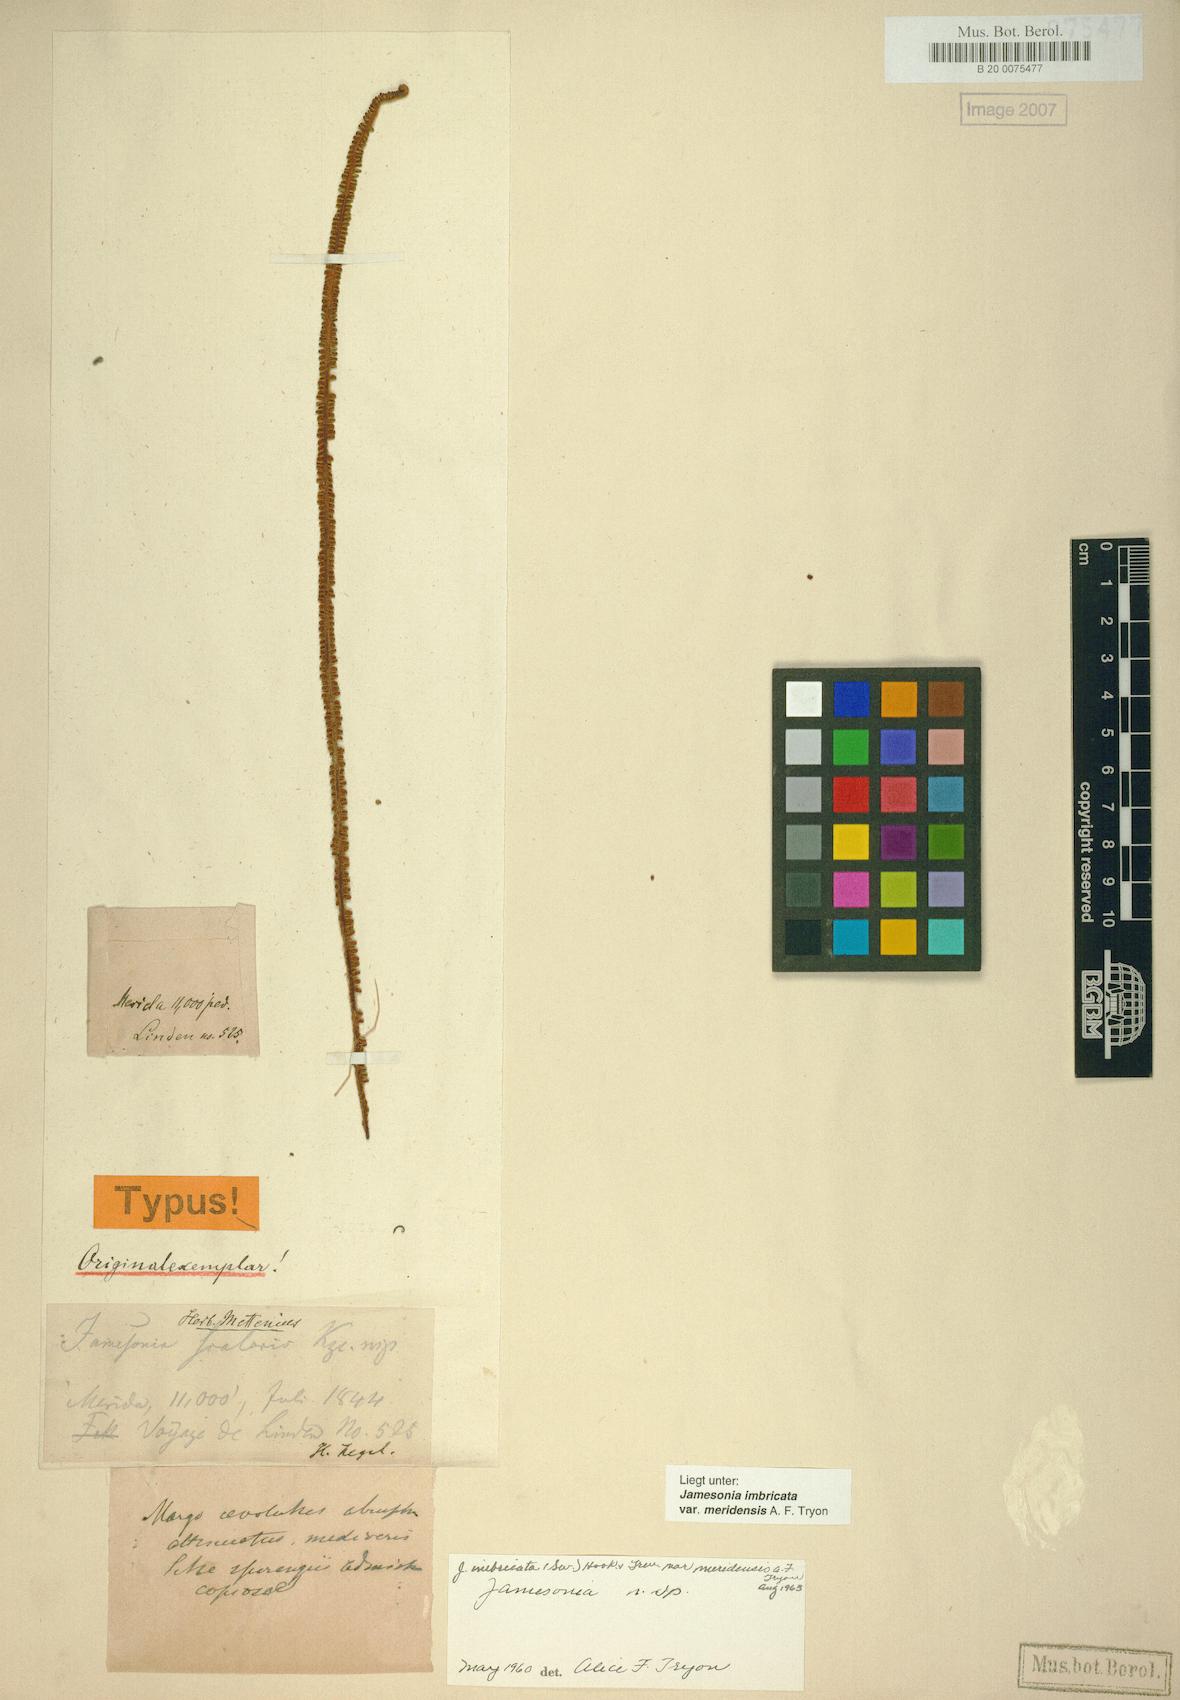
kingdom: Plantae
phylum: Tracheophyta
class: Polypodiopsida
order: Polypodiales
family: Pteridaceae
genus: Jamesonia
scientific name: Jamesonia imbricata
